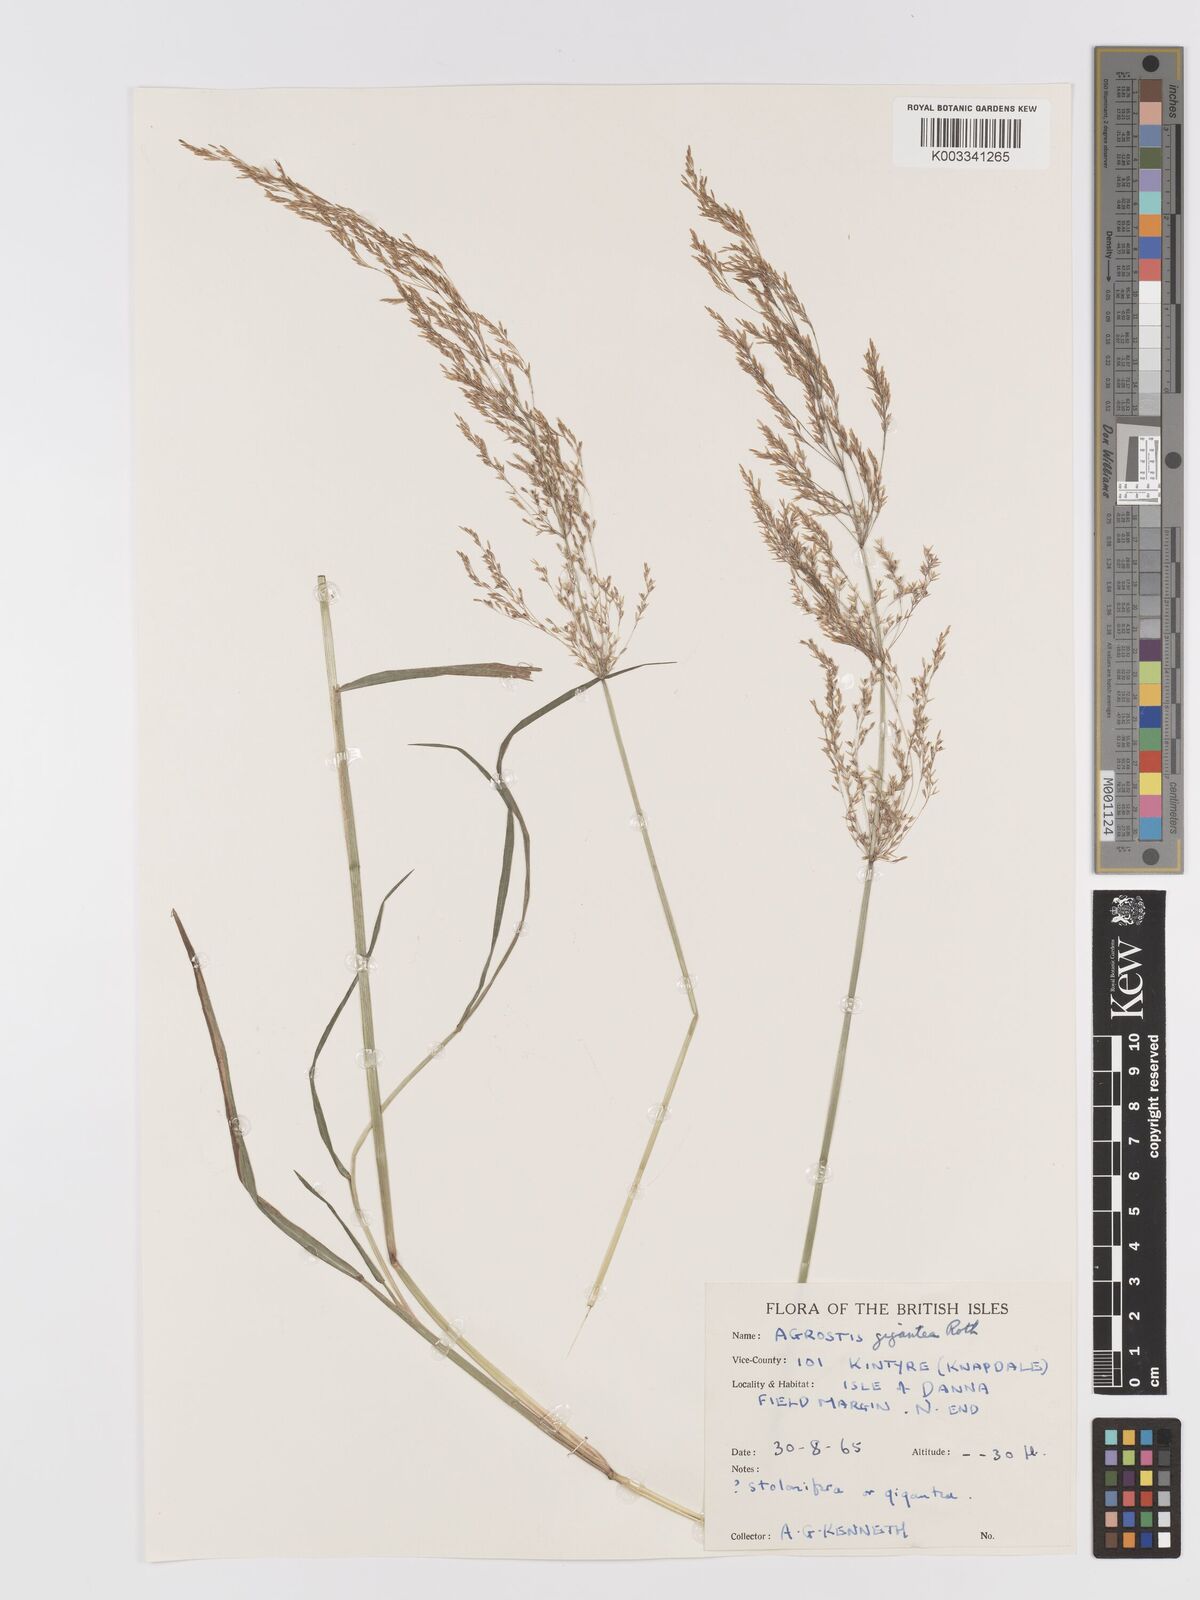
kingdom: Plantae
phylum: Tracheophyta
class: Liliopsida
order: Poales
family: Poaceae
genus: Agrostis
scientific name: Agrostis gigantea
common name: Black bent
